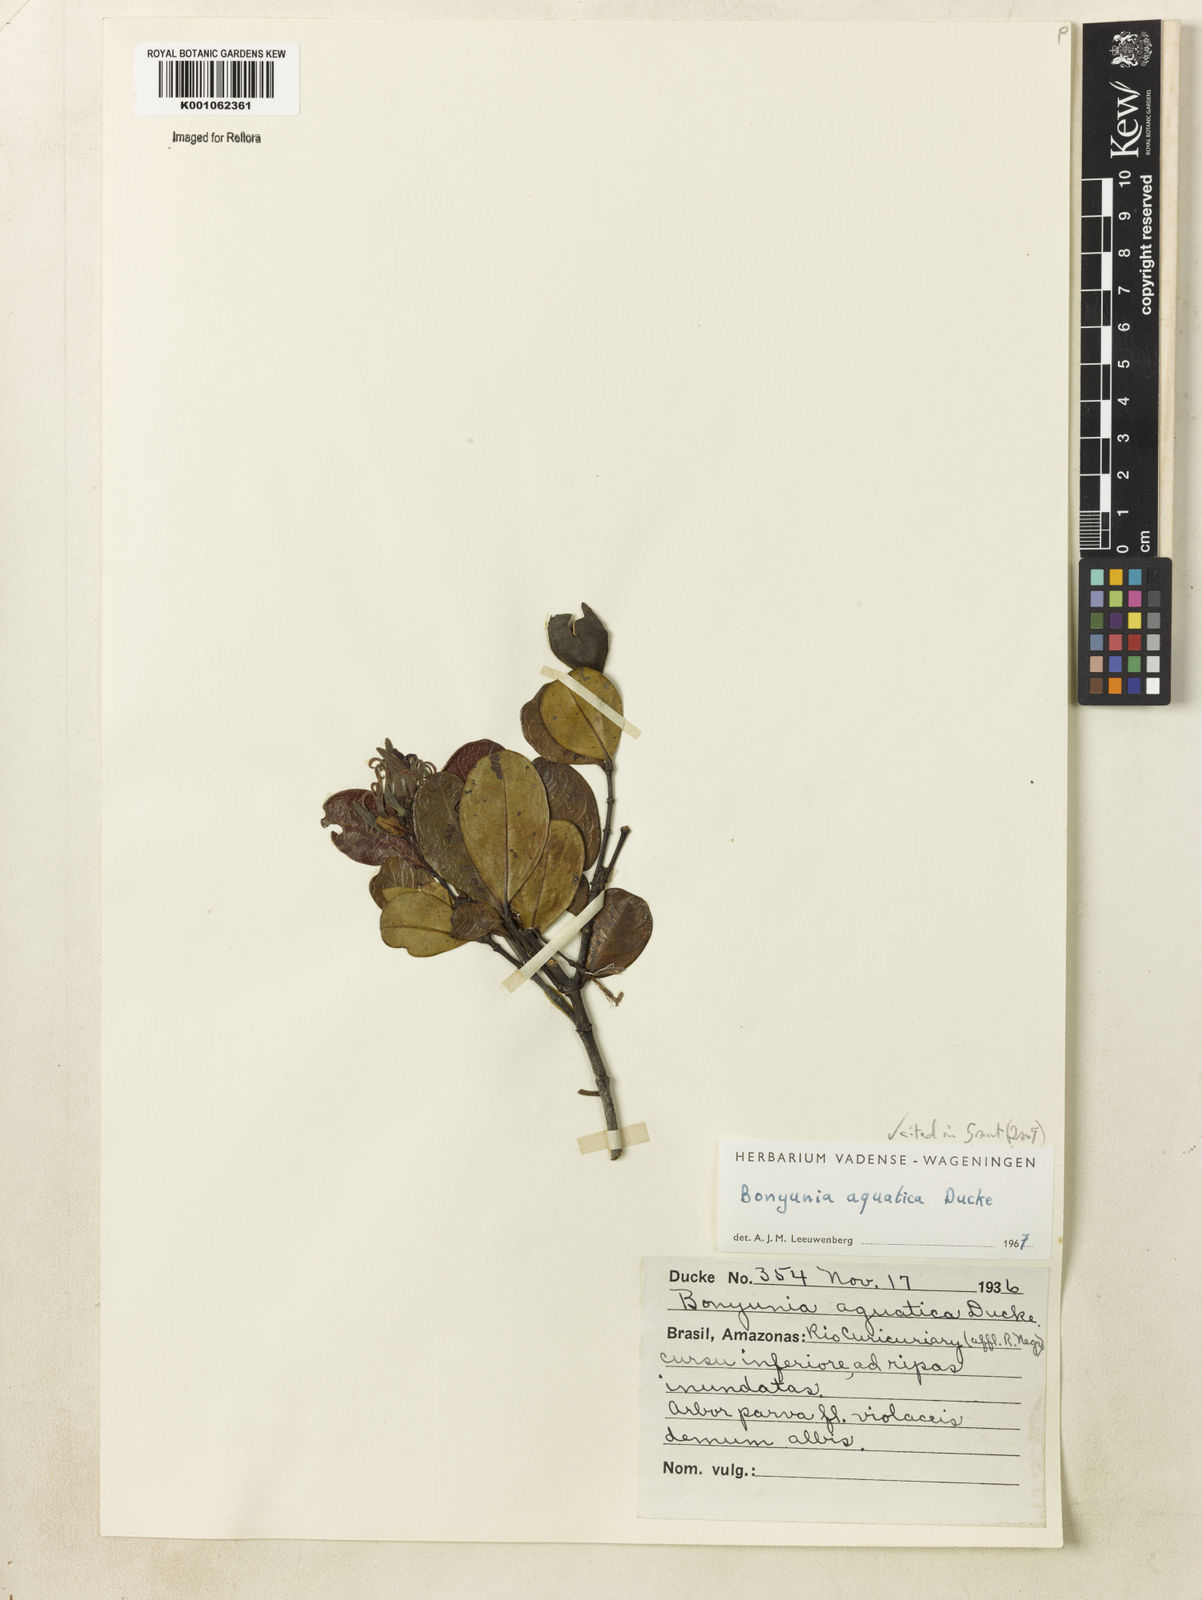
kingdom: Plantae
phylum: Tracheophyta
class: Magnoliopsida
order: Gentianales
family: Loganiaceae
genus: Bonyunia
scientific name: Bonyunia aquatica
